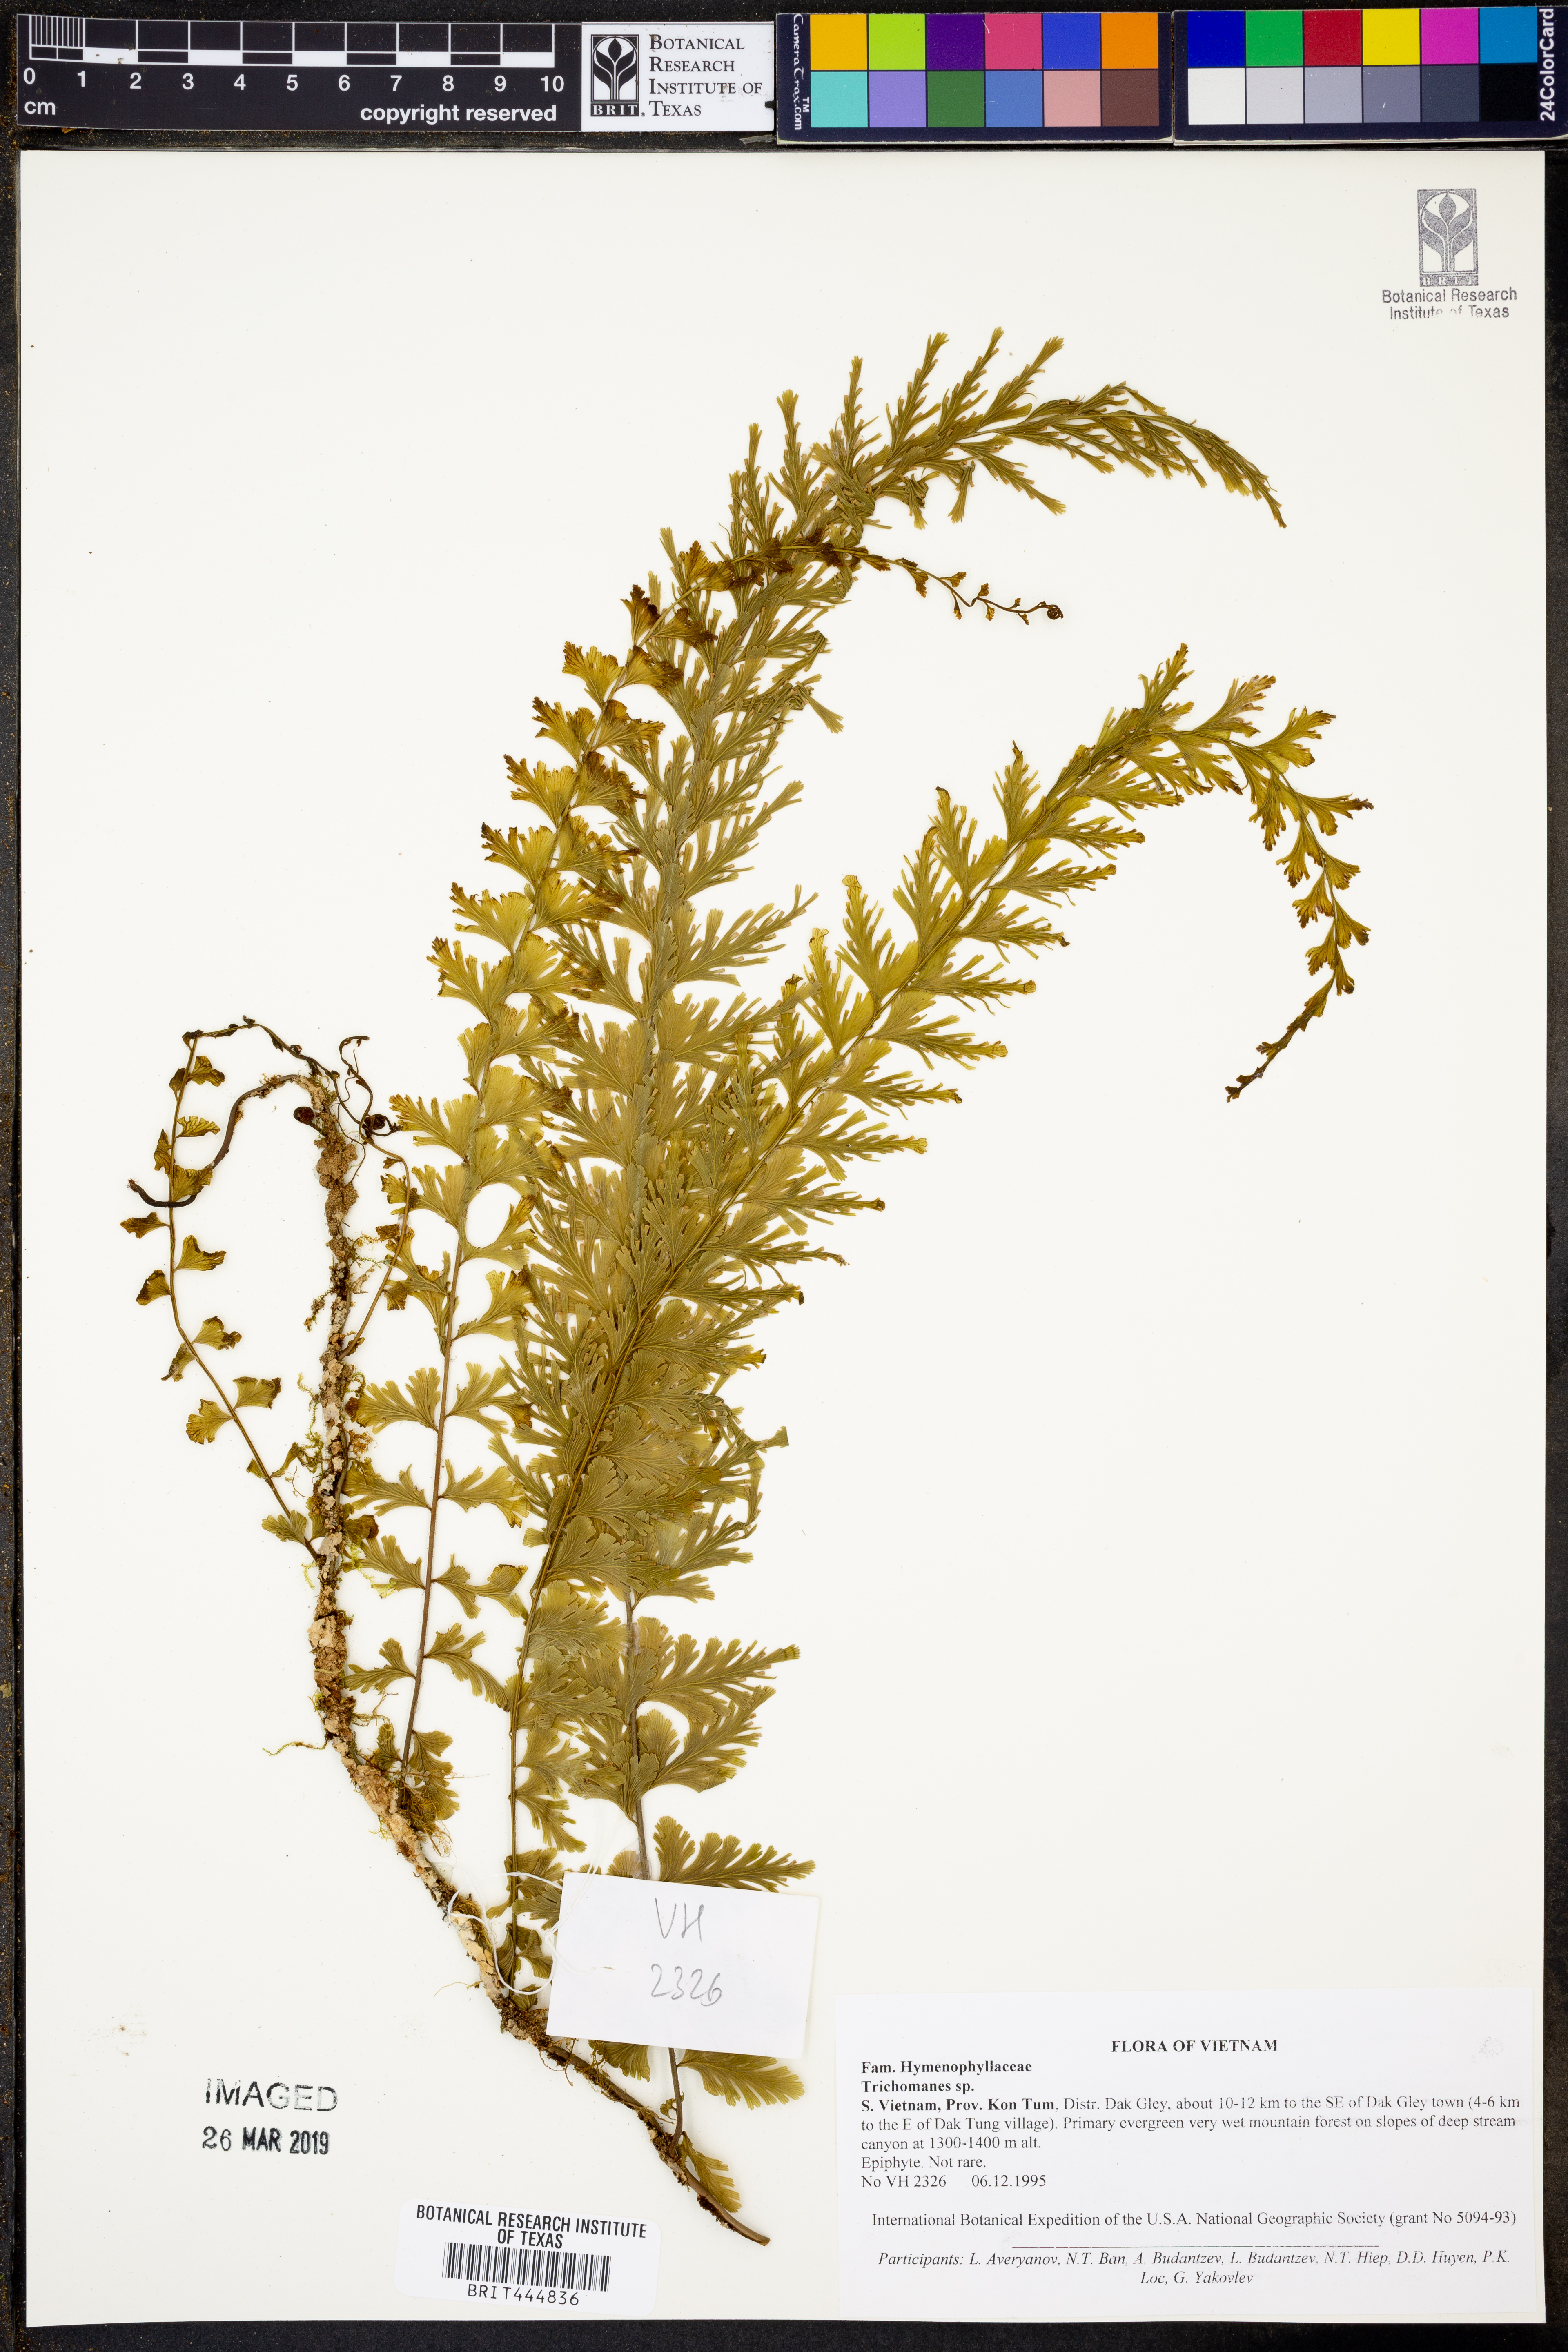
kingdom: Plantae
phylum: Tracheophyta
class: Polypodiopsida
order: Hymenophyllales
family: Hymenophyllaceae
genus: Trichomanes
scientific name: Trichomanes
